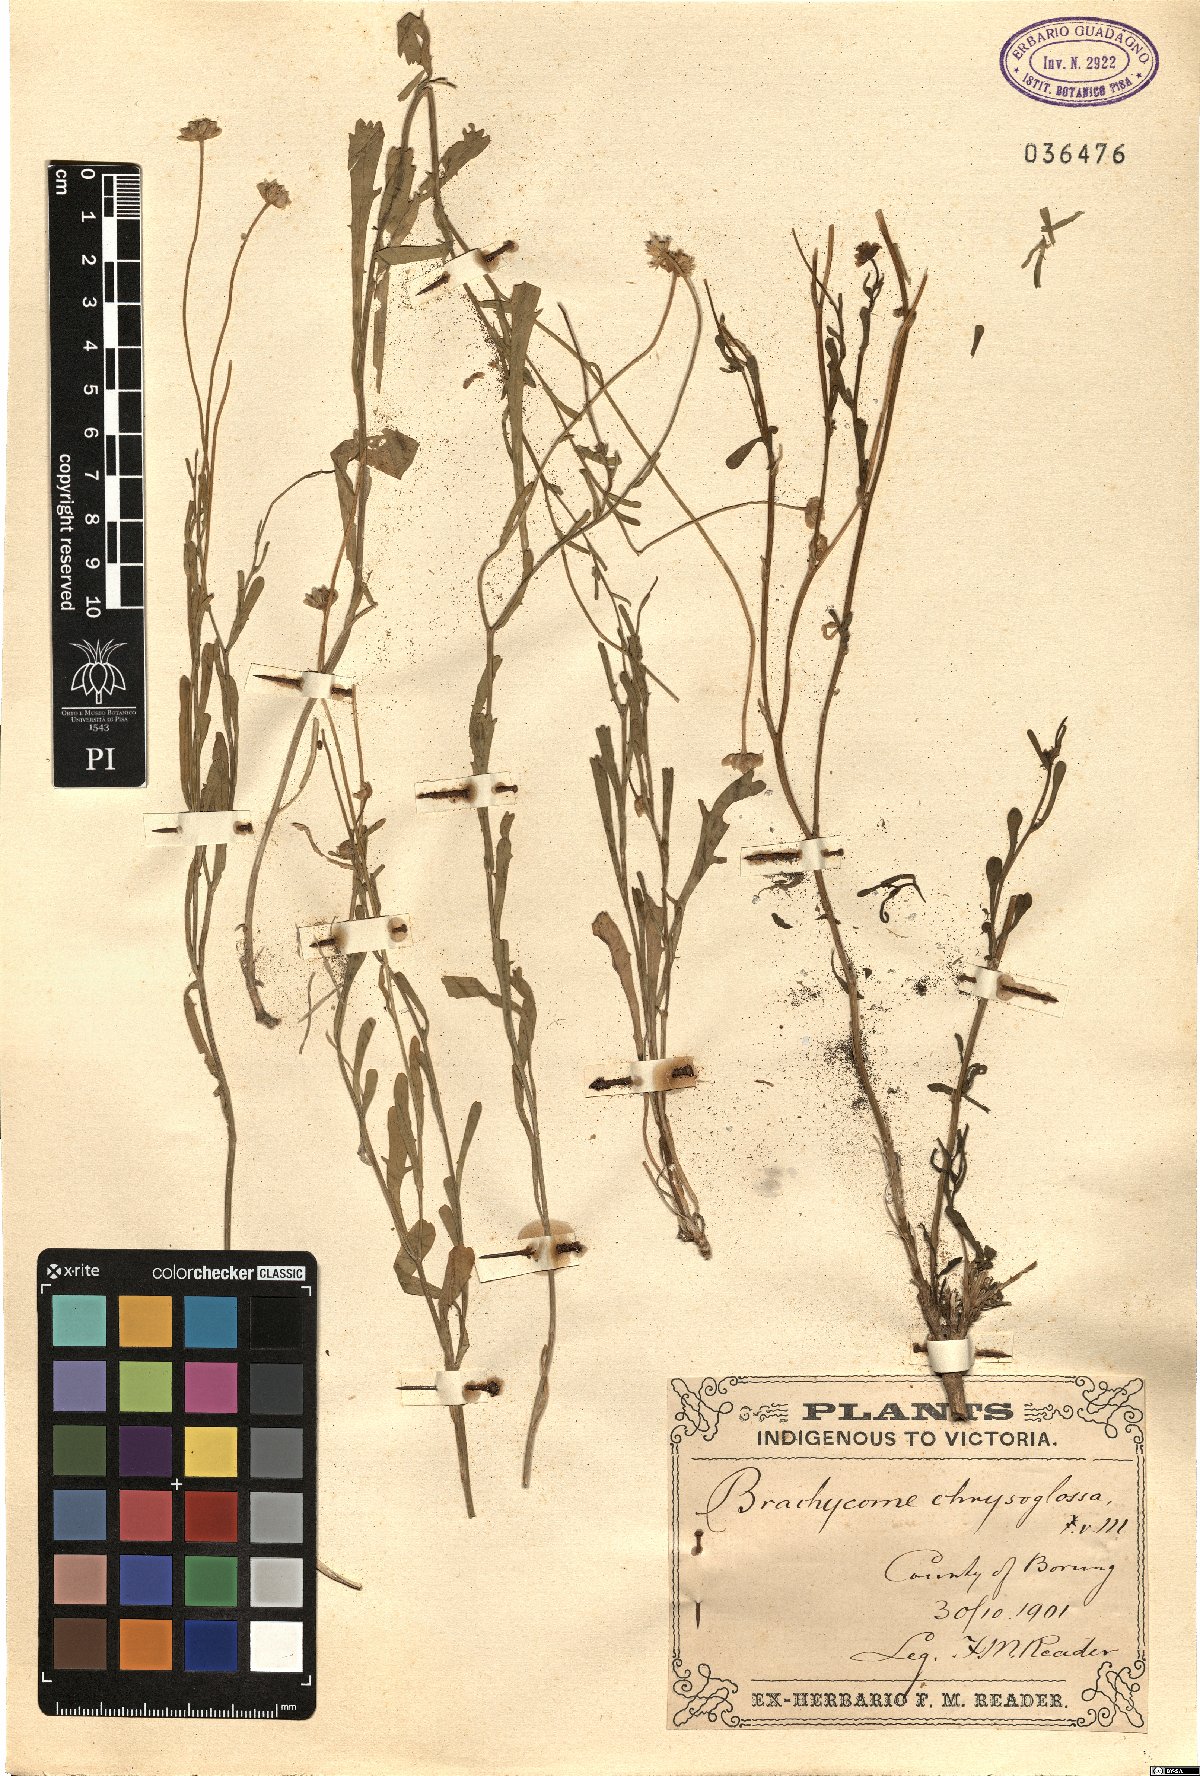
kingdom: Plantae
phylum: Tracheophyta
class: Magnoliopsida
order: Asterales
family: Asteraceae
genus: Brachyscome
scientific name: Brachyscome chrysoglossa
